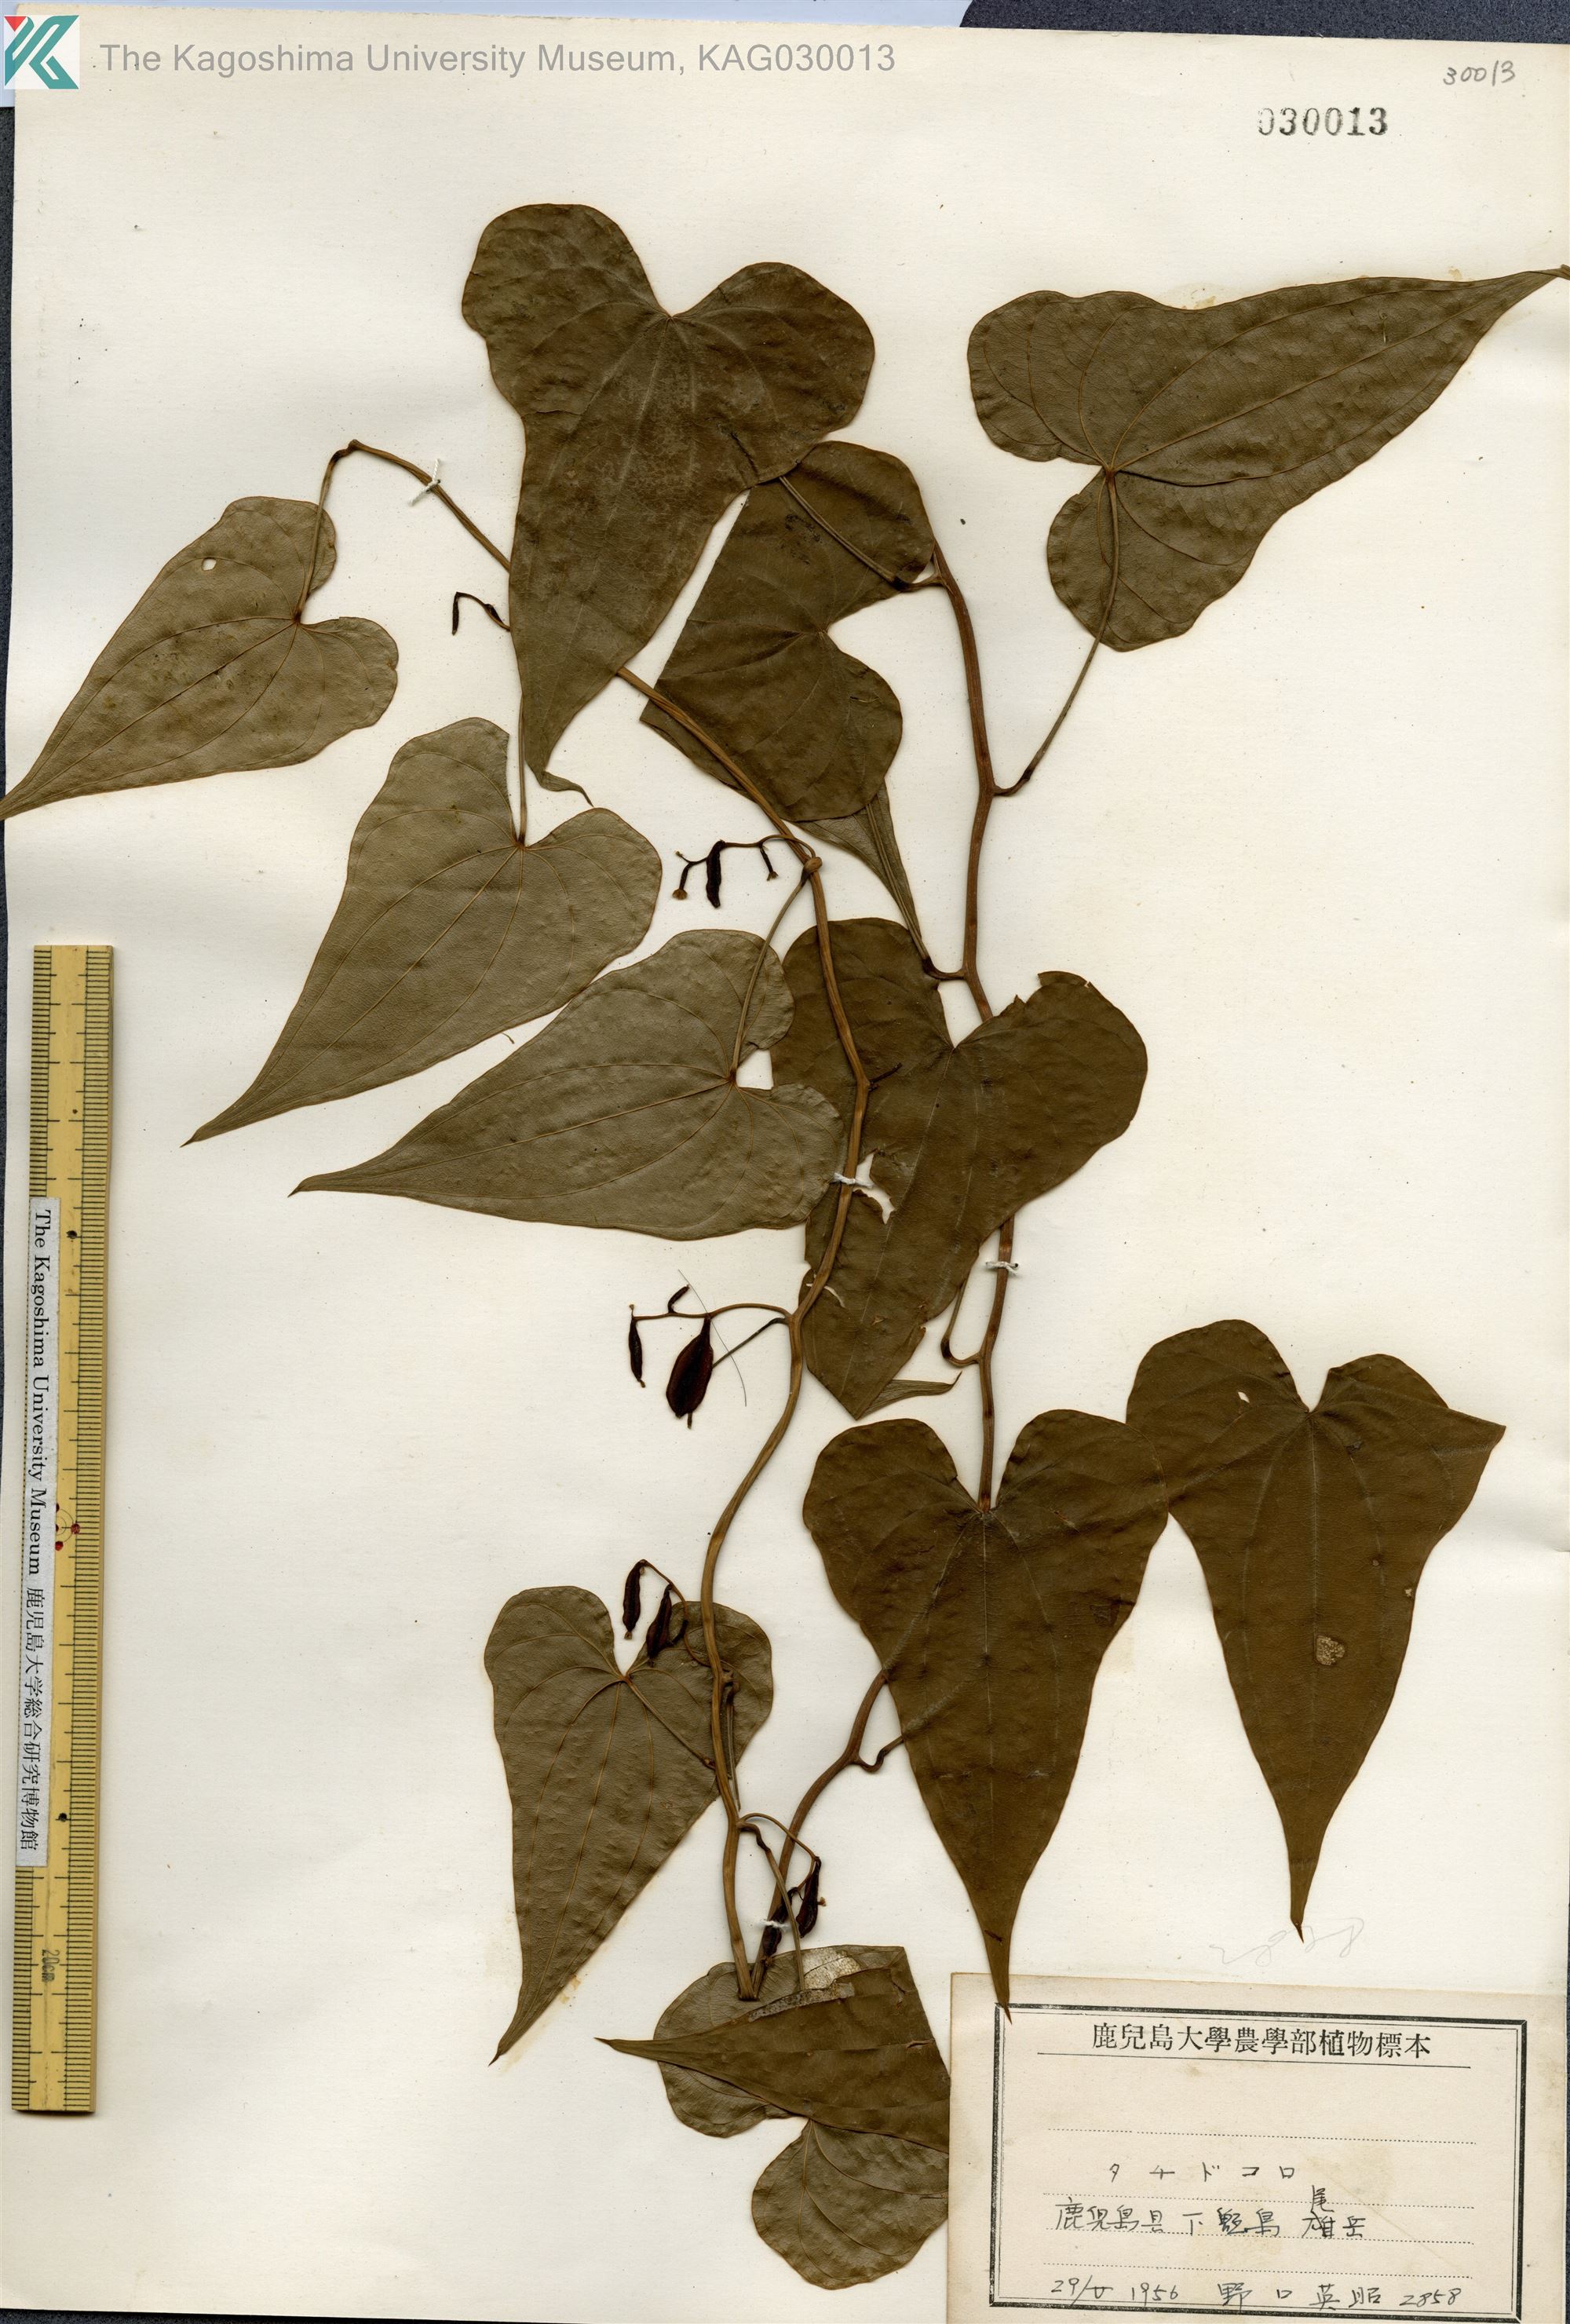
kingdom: Plantae
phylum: Tracheophyta
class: Liliopsida
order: Dioscoreales
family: Dioscoreaceae
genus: Dioscorea
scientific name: Dioscorea asclepiadea
